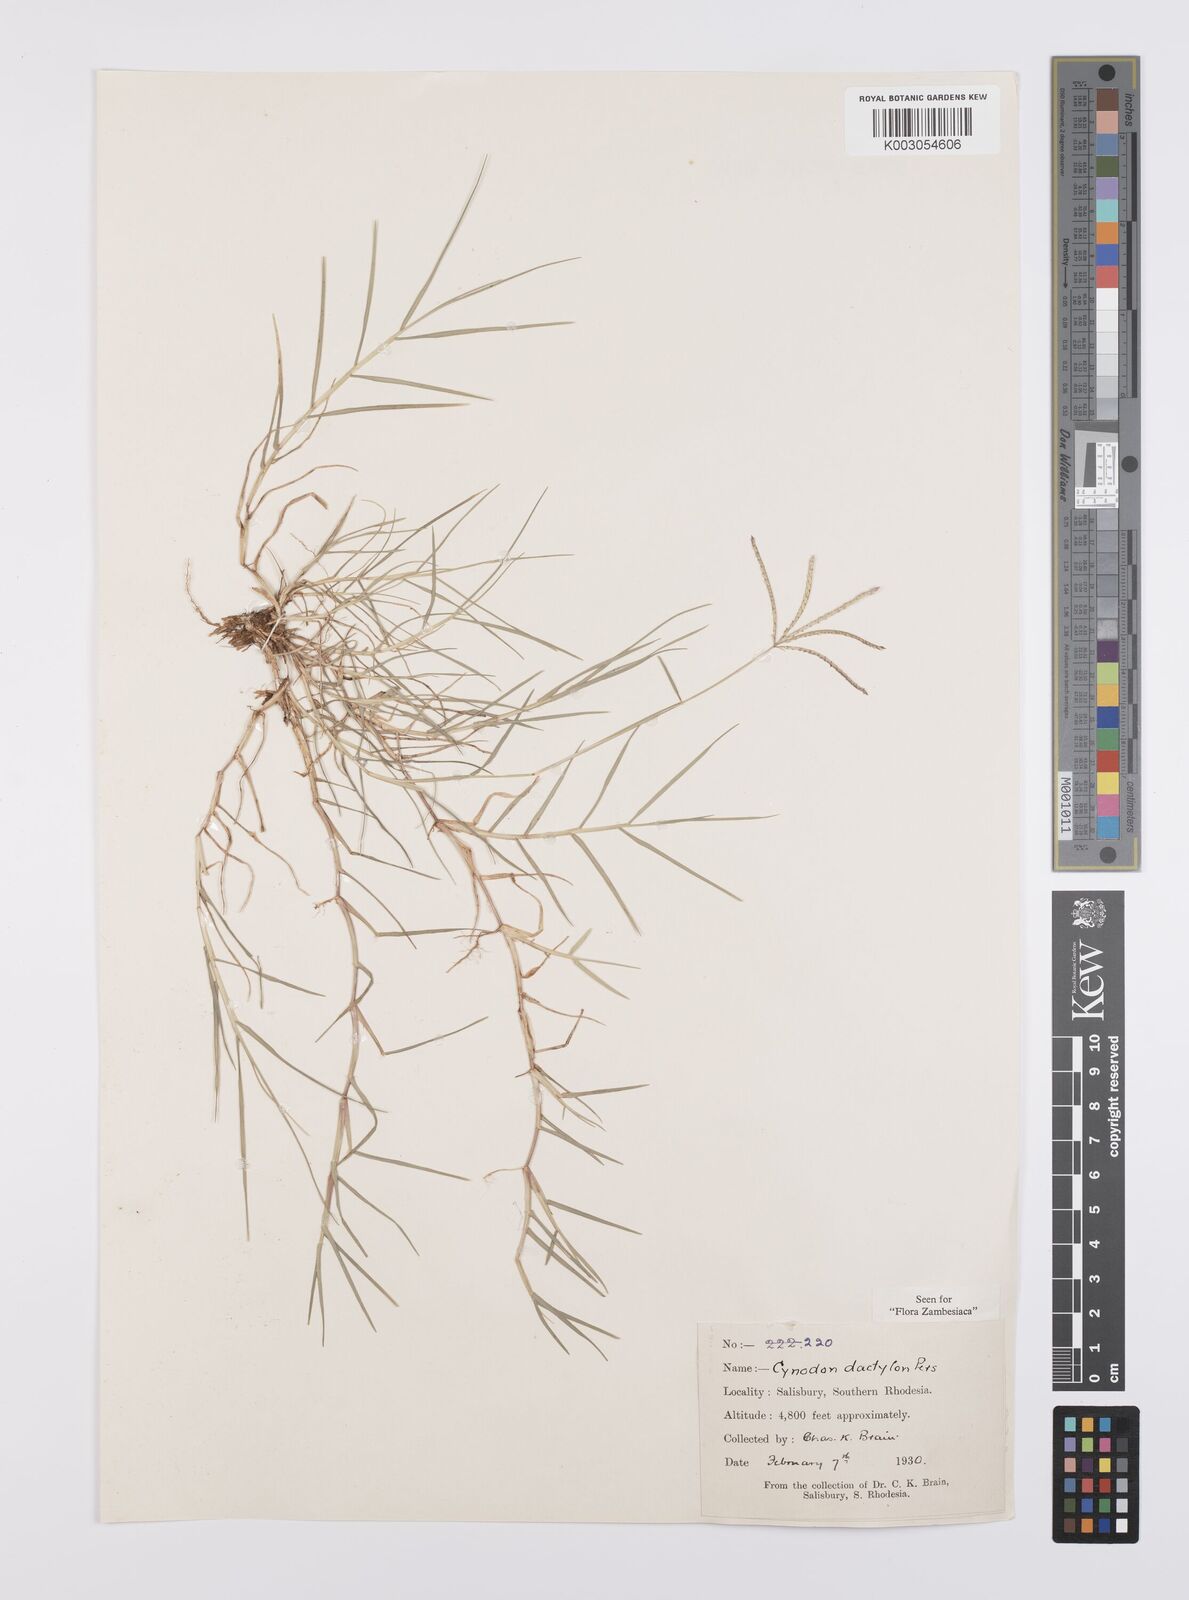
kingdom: Plantae
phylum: Tracheophyta
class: Liliopsida
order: Poales
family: Poaceae
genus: Cynodon
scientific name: Cynodon dactylon
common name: Bermuda grass
